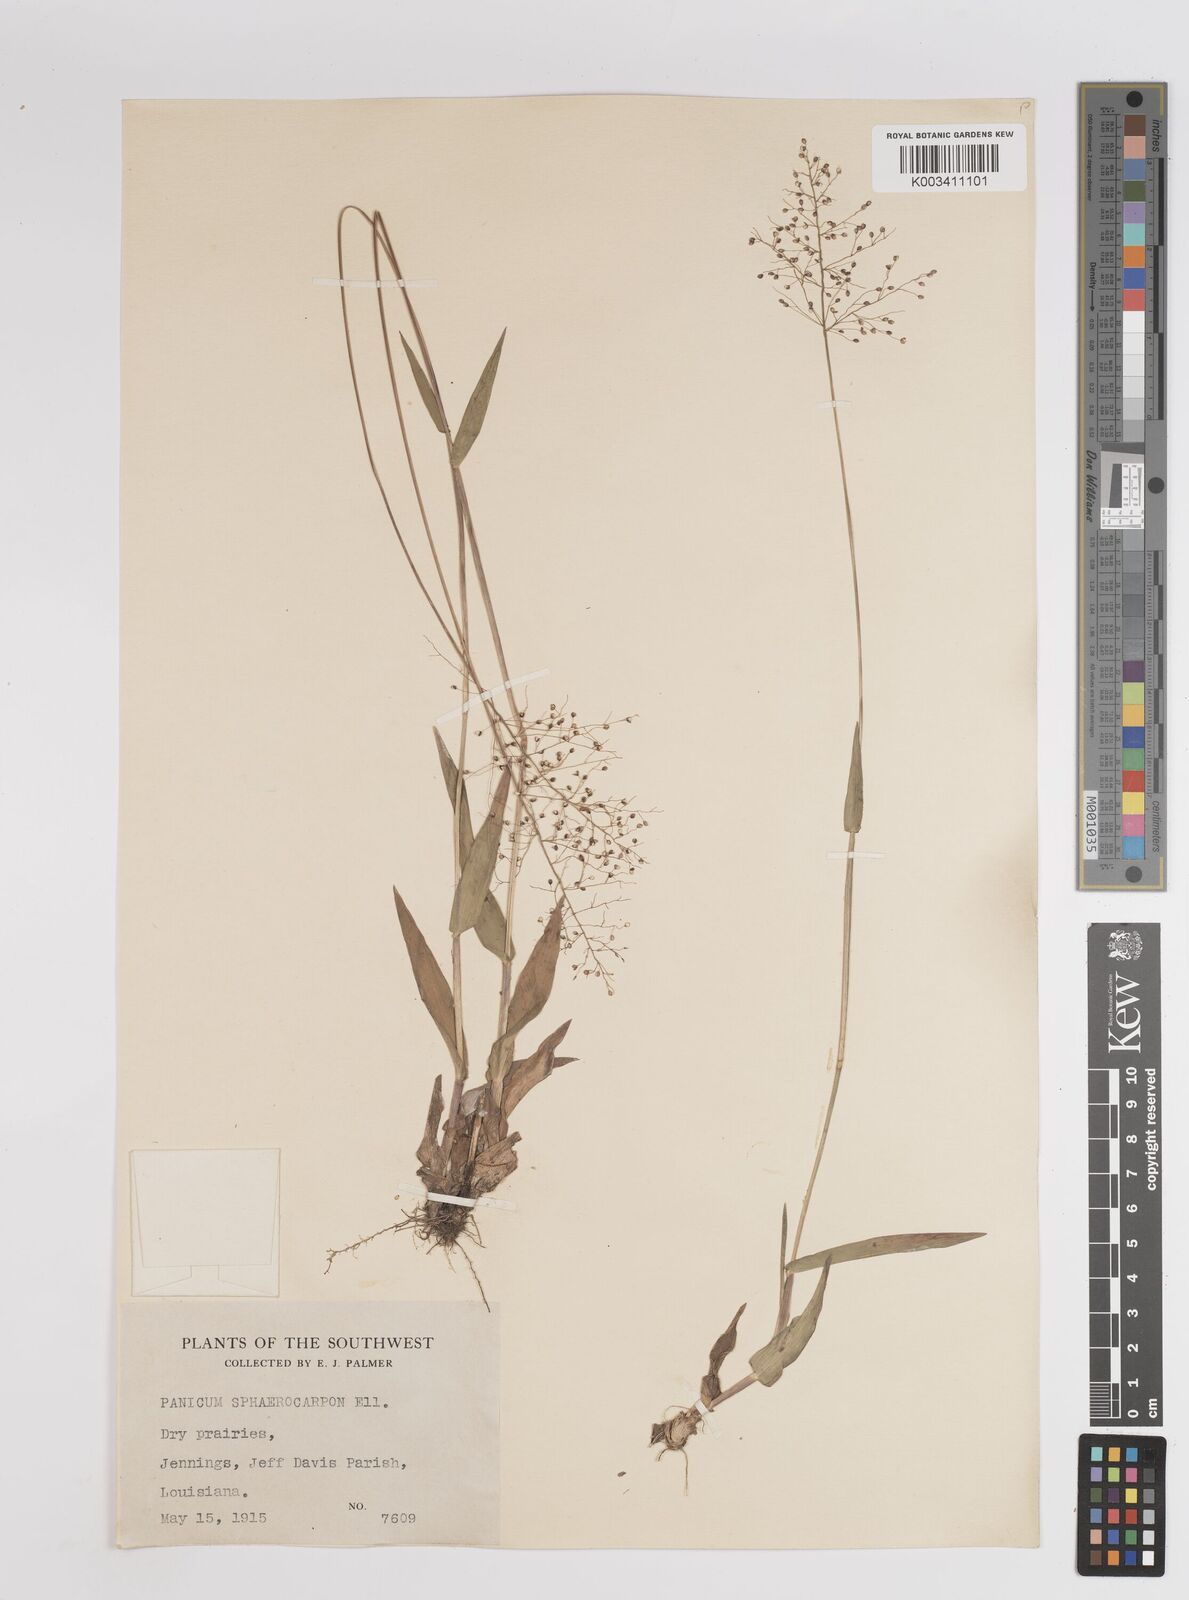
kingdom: Plantae
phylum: Tracheophyta
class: Liliopsida
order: Poales
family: Poaceae
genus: Dichanthelium
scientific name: Dichanthelium sphaerocarpon
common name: Round-fruited panicgrass
